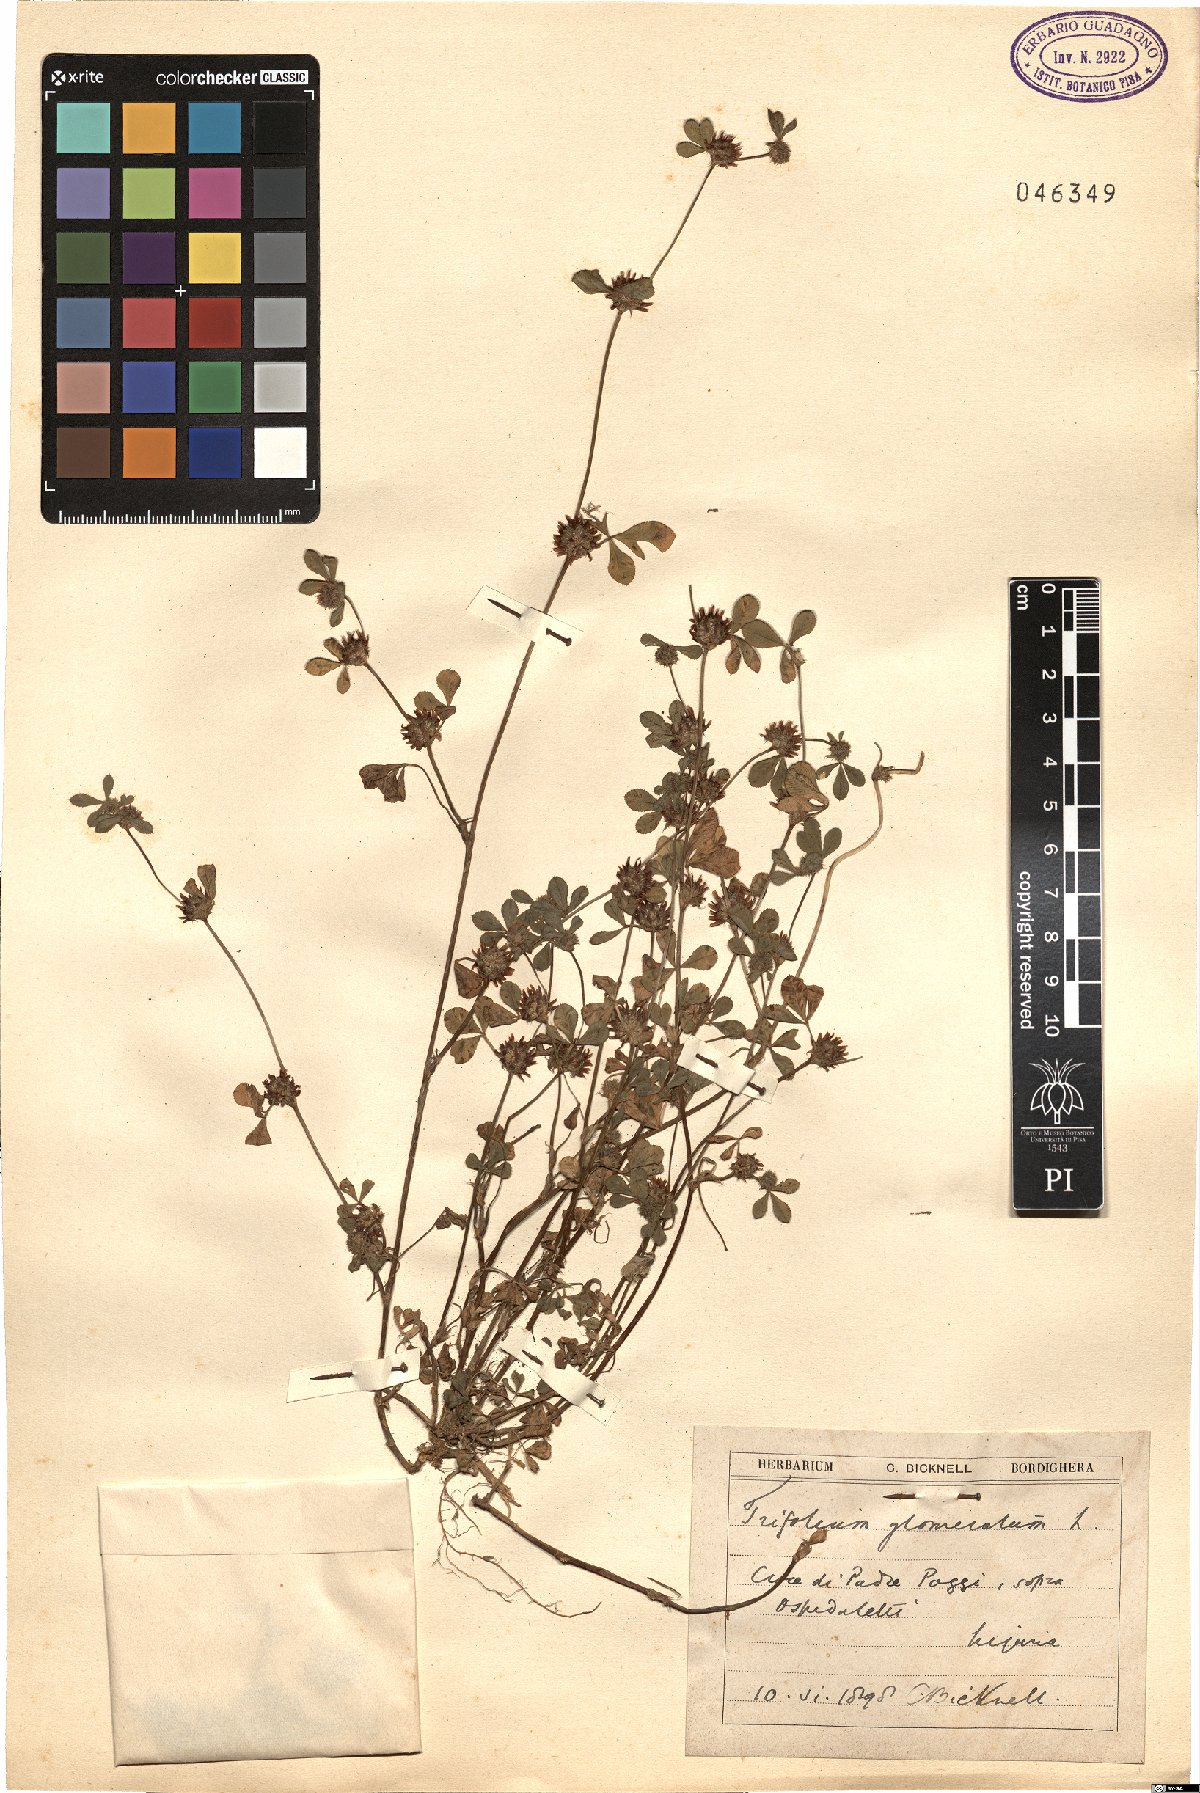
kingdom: Plantae
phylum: Tracheophyta
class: Magnoliopsida
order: Fabales
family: Fabaceae
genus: Trifolium
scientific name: Trifolium glomeratum
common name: Clustered clover
